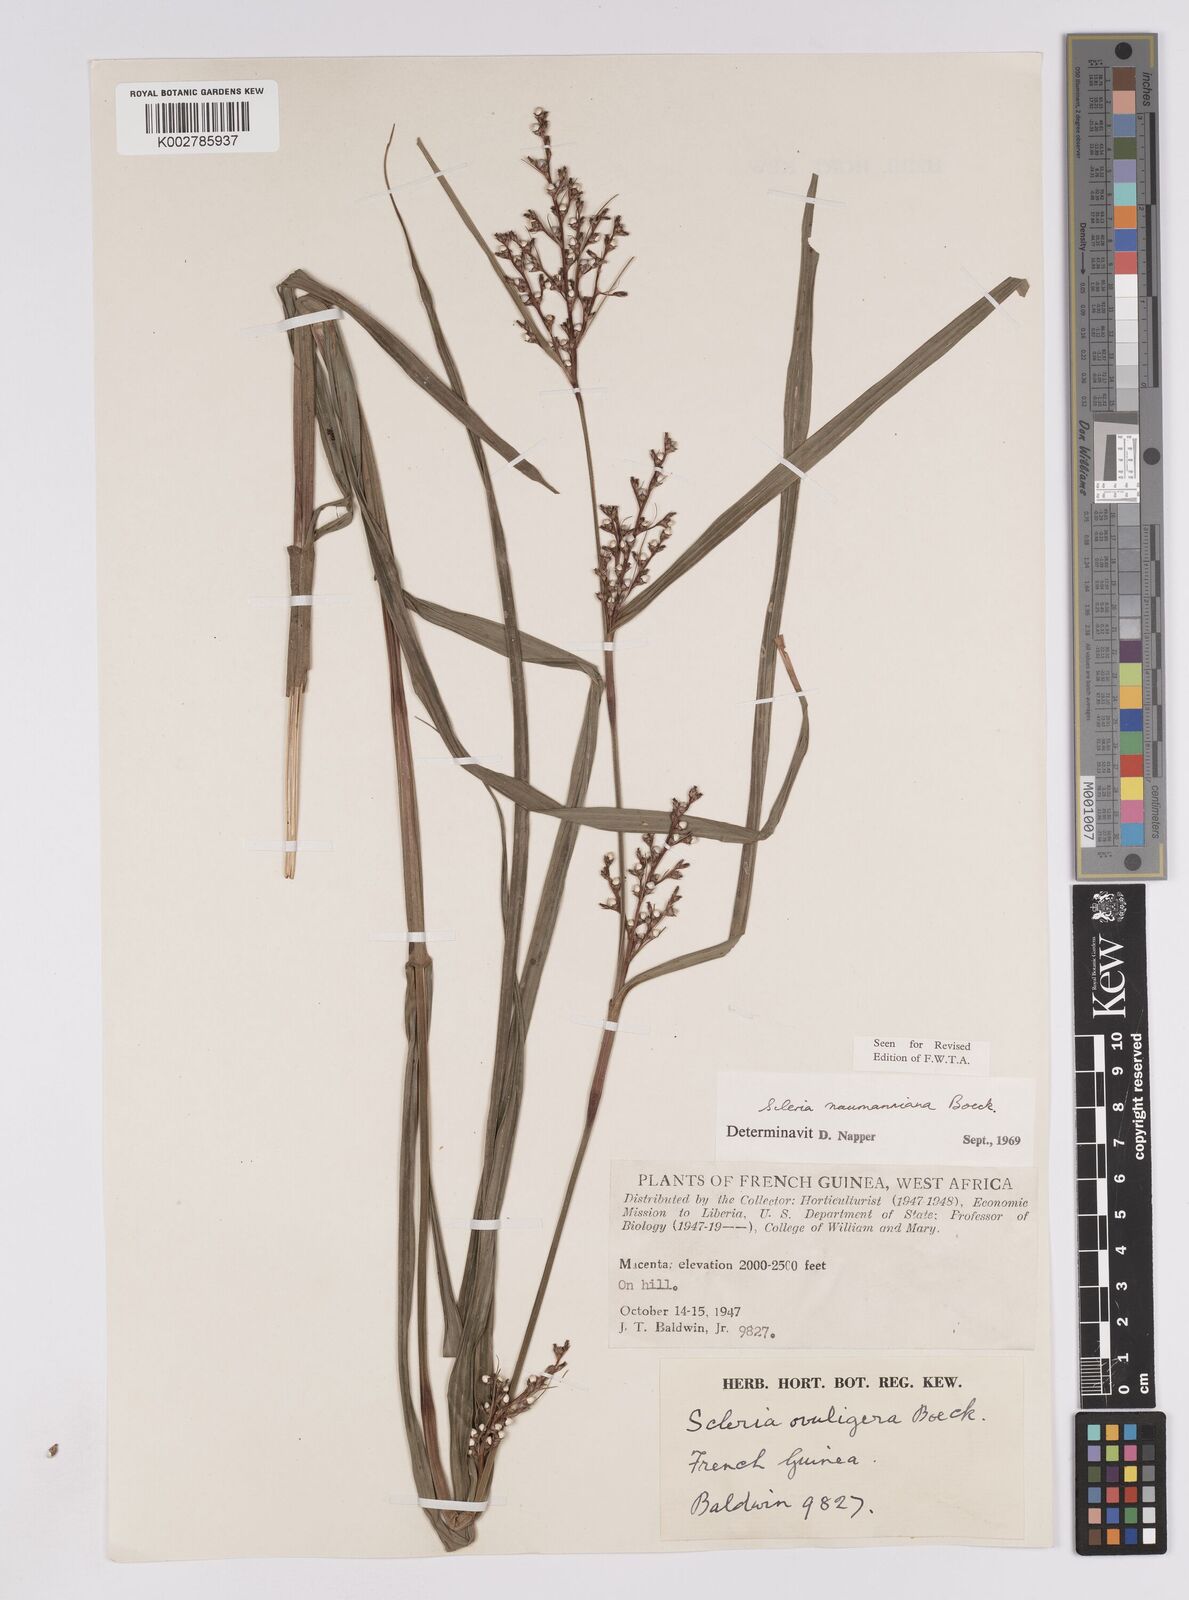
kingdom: Plantae
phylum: Tracheophyta
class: Liliopsida
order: Poales
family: Cyperaceae
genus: Scleria
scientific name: Scleria naumanniana
